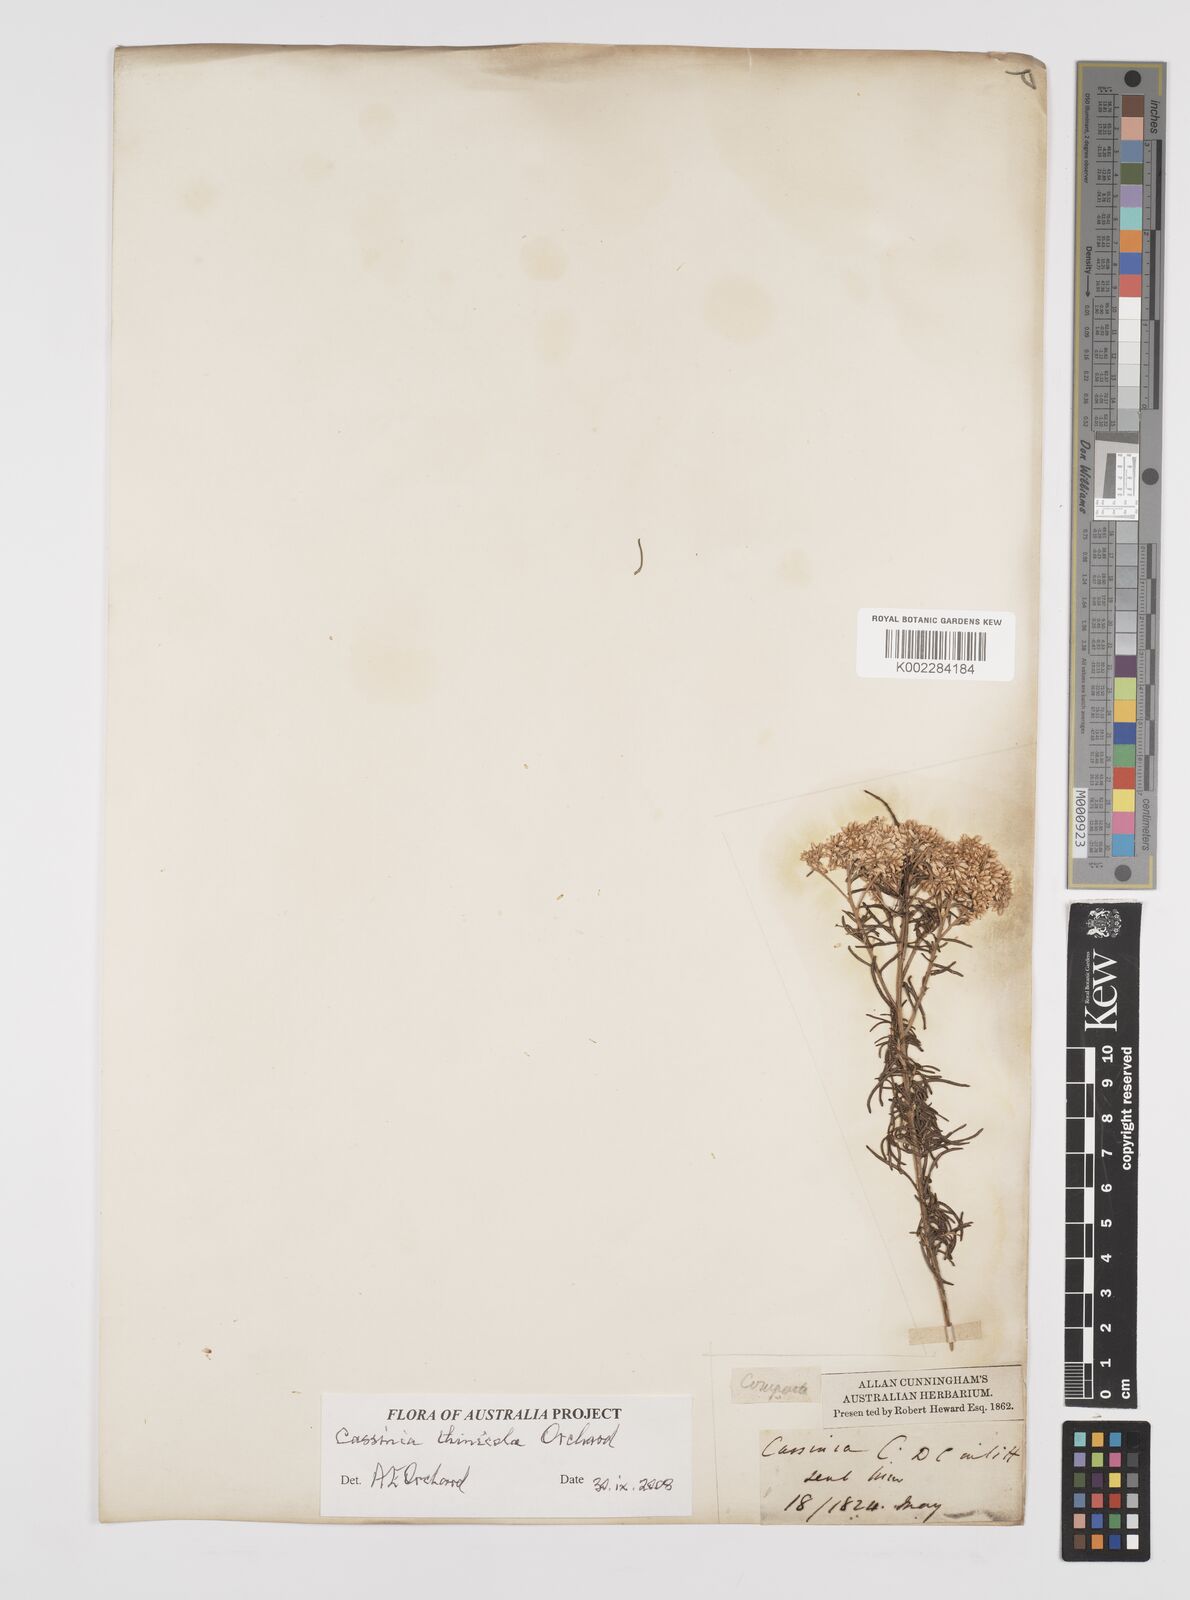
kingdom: Plantae
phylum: Tracheophyta
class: Magnoliopsida
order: Asterales
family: Asteraceae
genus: Cassinia
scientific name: Cassinia thinicola
